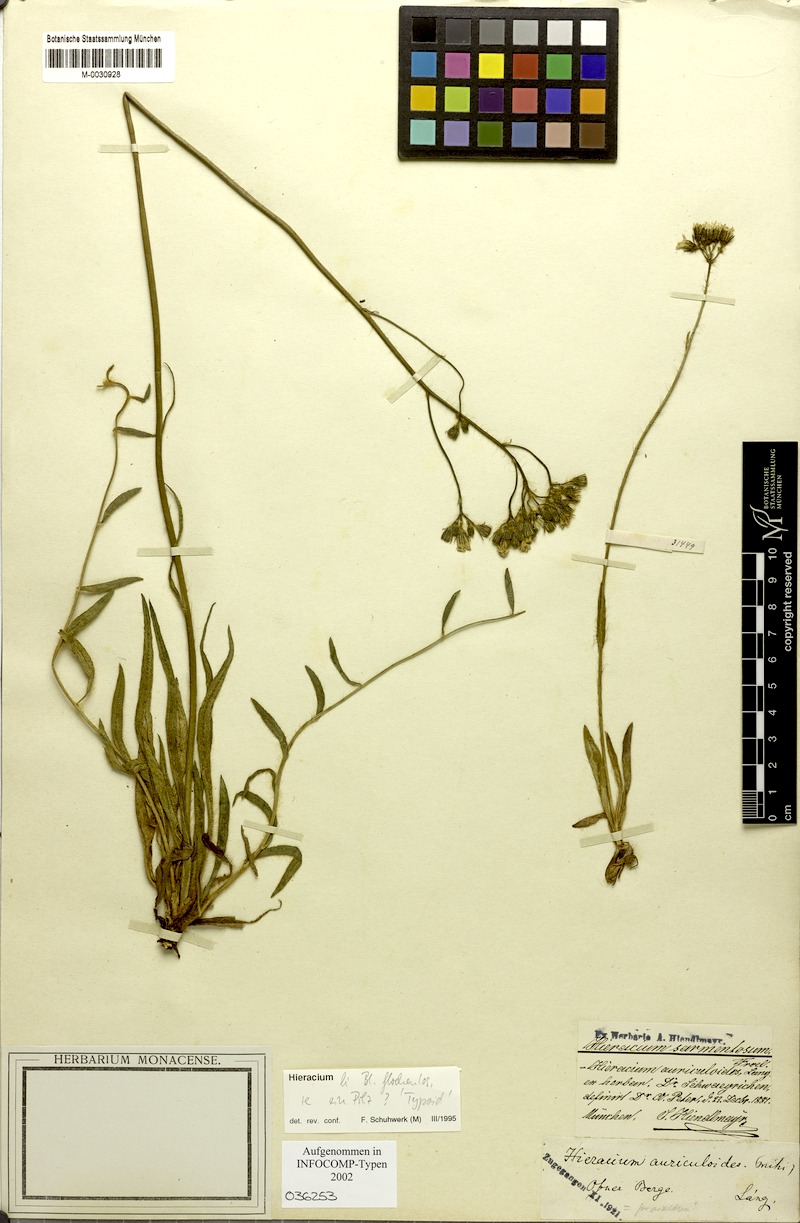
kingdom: Plantae
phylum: Tracheophyta
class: Magnoliopsida
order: Asterales
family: Asteraceae
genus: Pilosella
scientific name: Pilosella auriculoides
